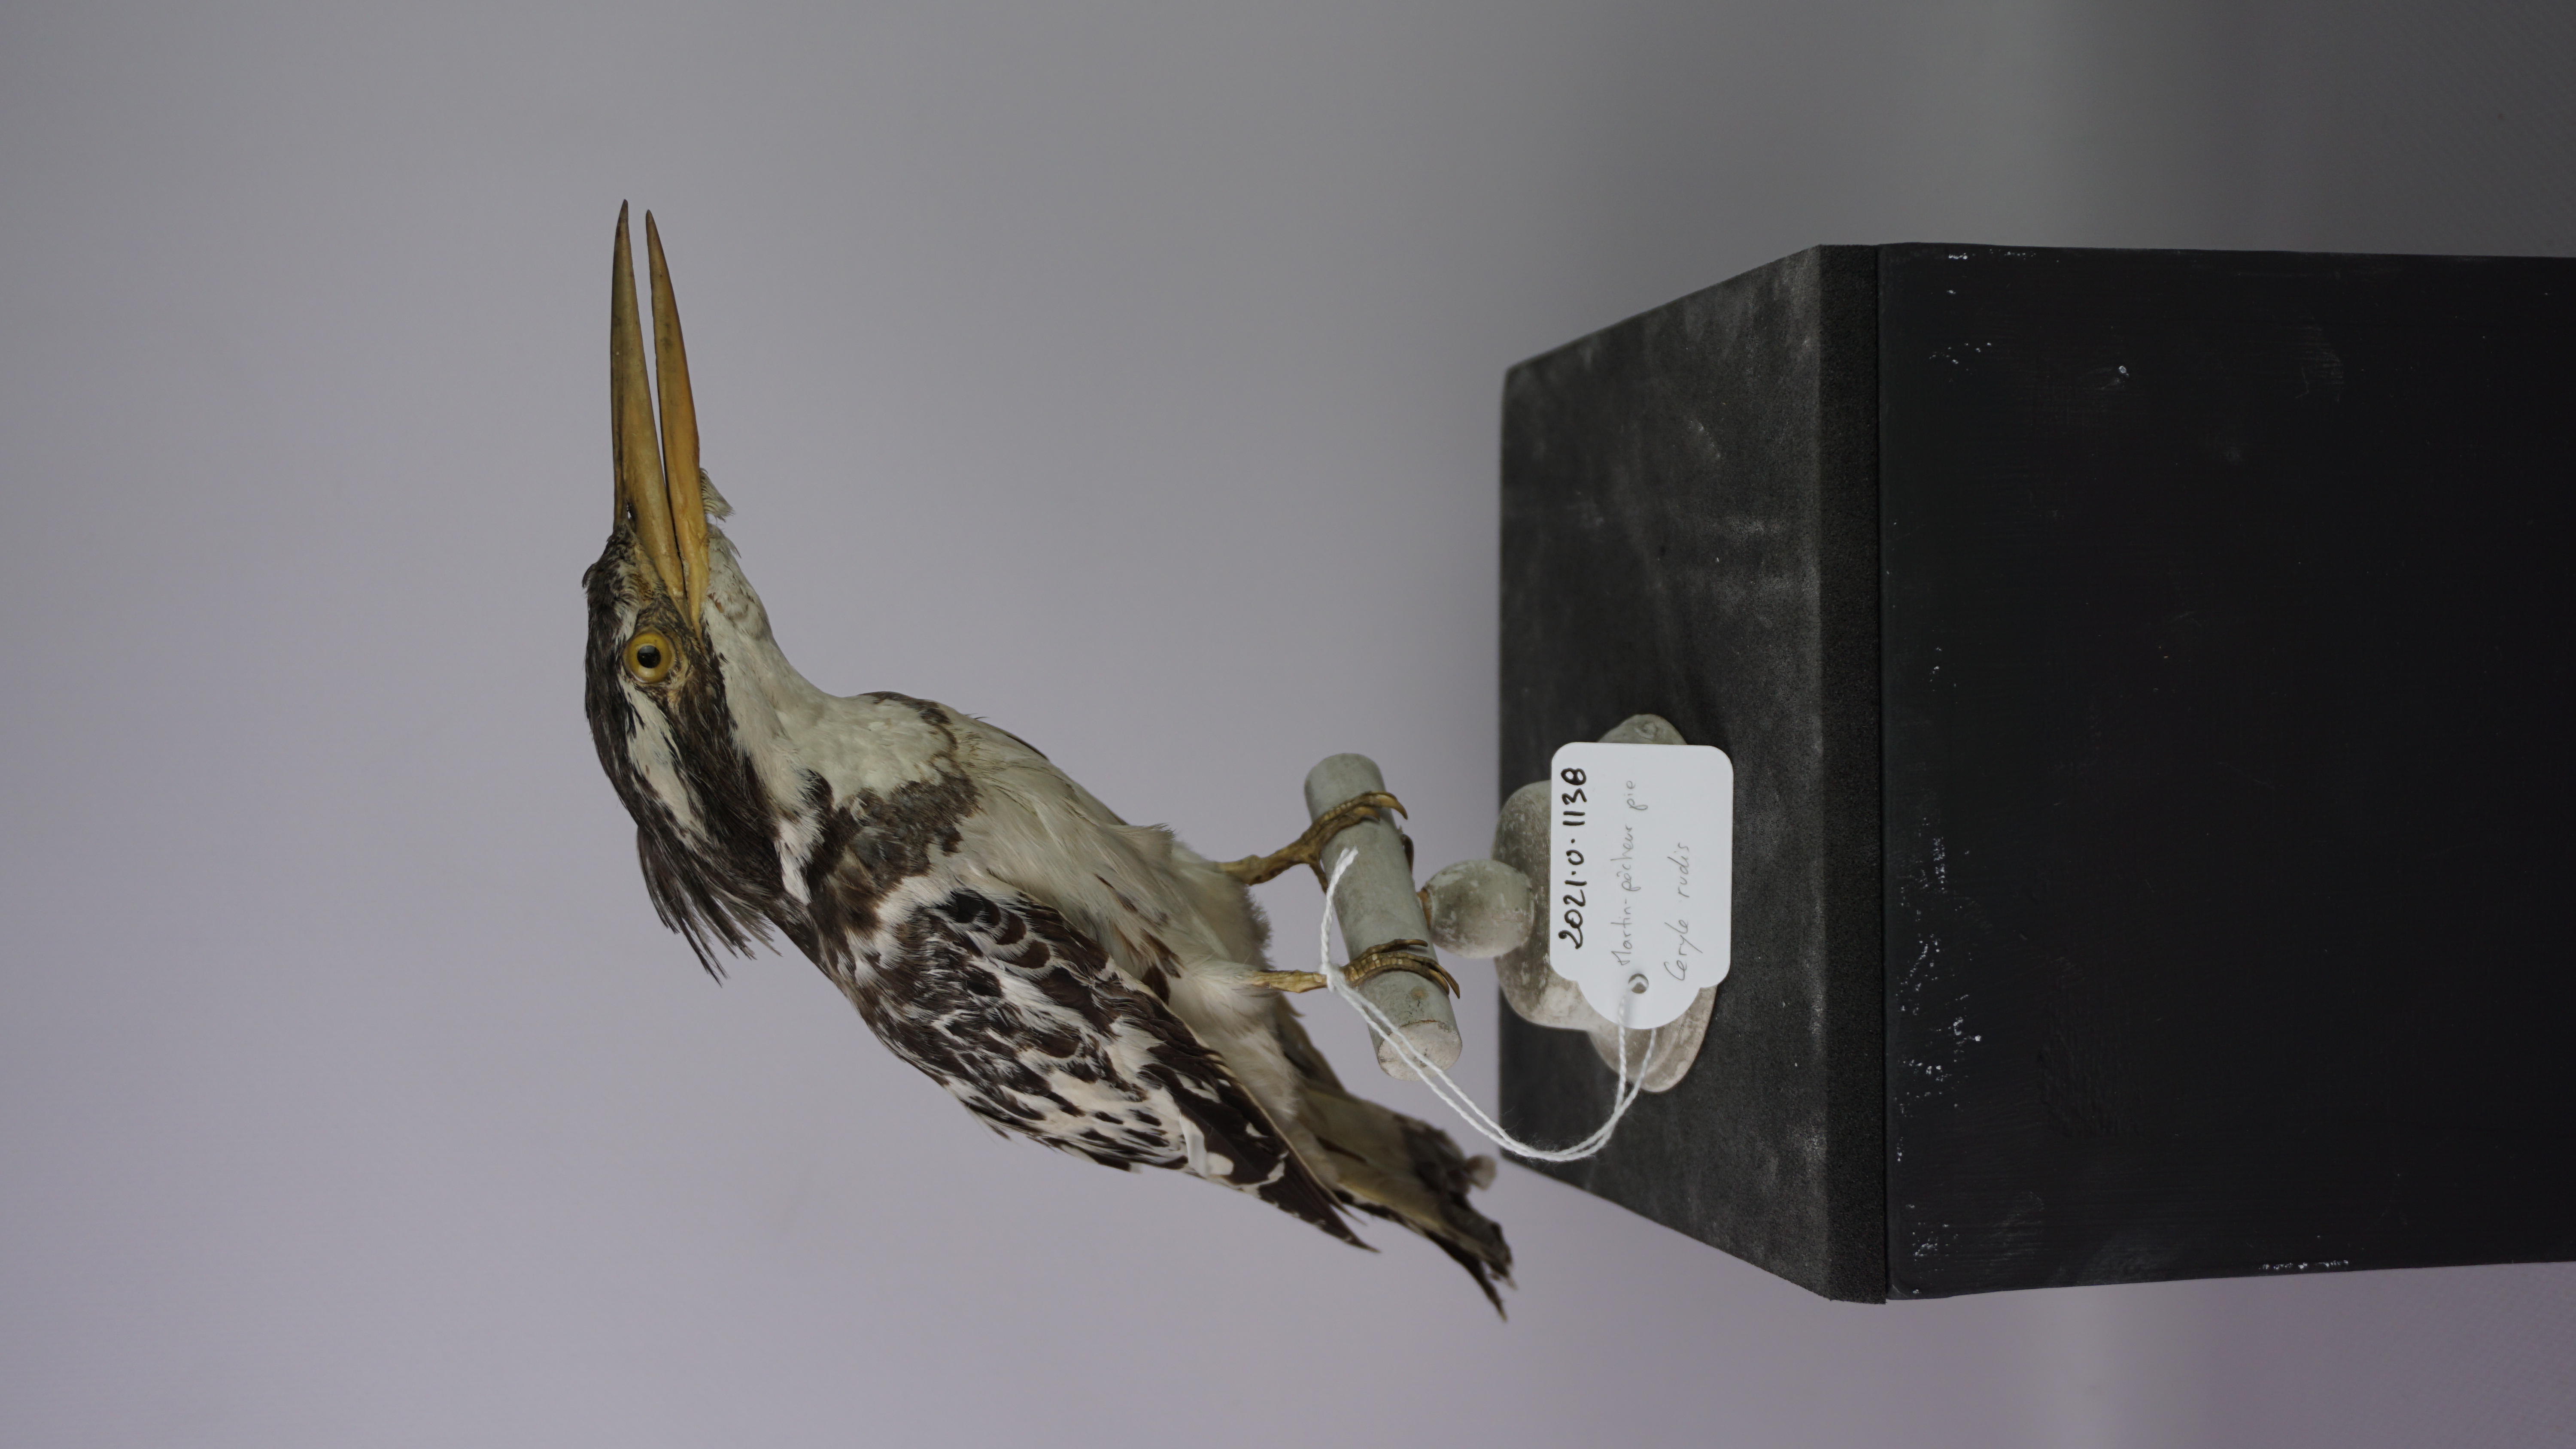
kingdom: Animalia
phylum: Chordata
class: Aves
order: Coraciiformes
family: Alcedinidae
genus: Ceryle
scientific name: Ceryle rudis
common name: Pied kingfisher
